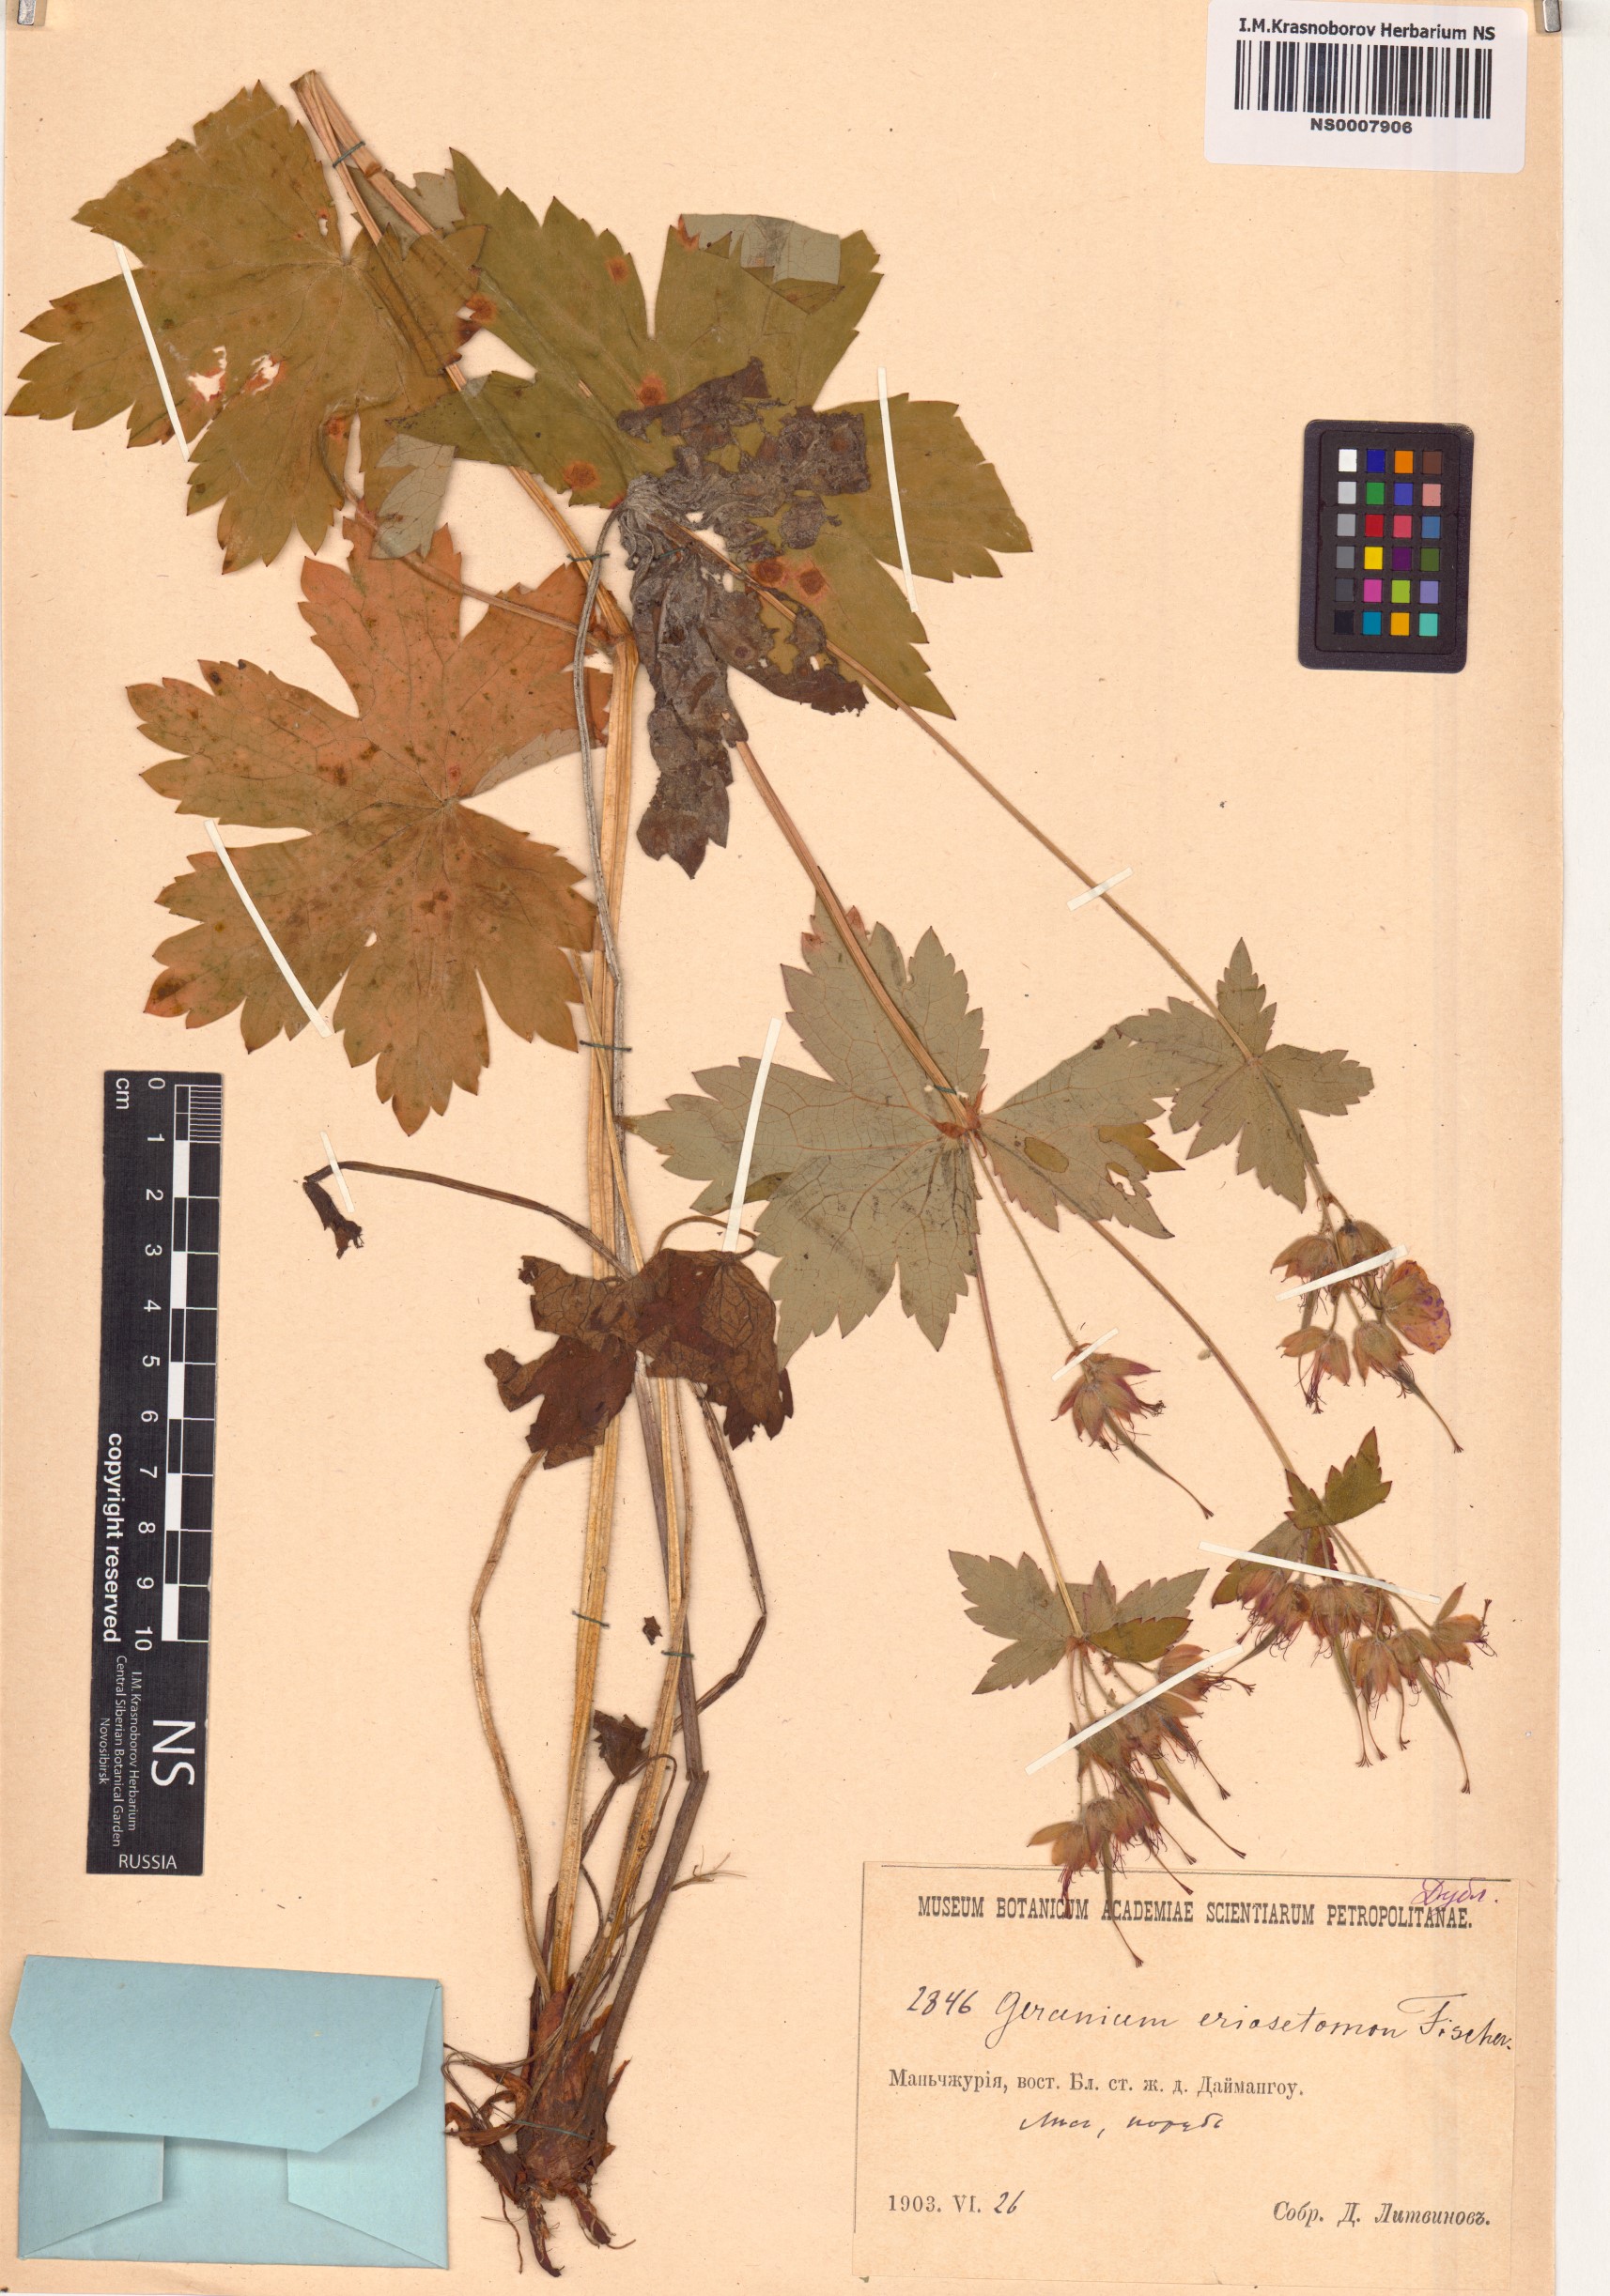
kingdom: Plantae
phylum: Tracheophyta
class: Magnoliopsida
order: Geraniales
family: Geraniaceae
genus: Geranium
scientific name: Geranium platyanthum
